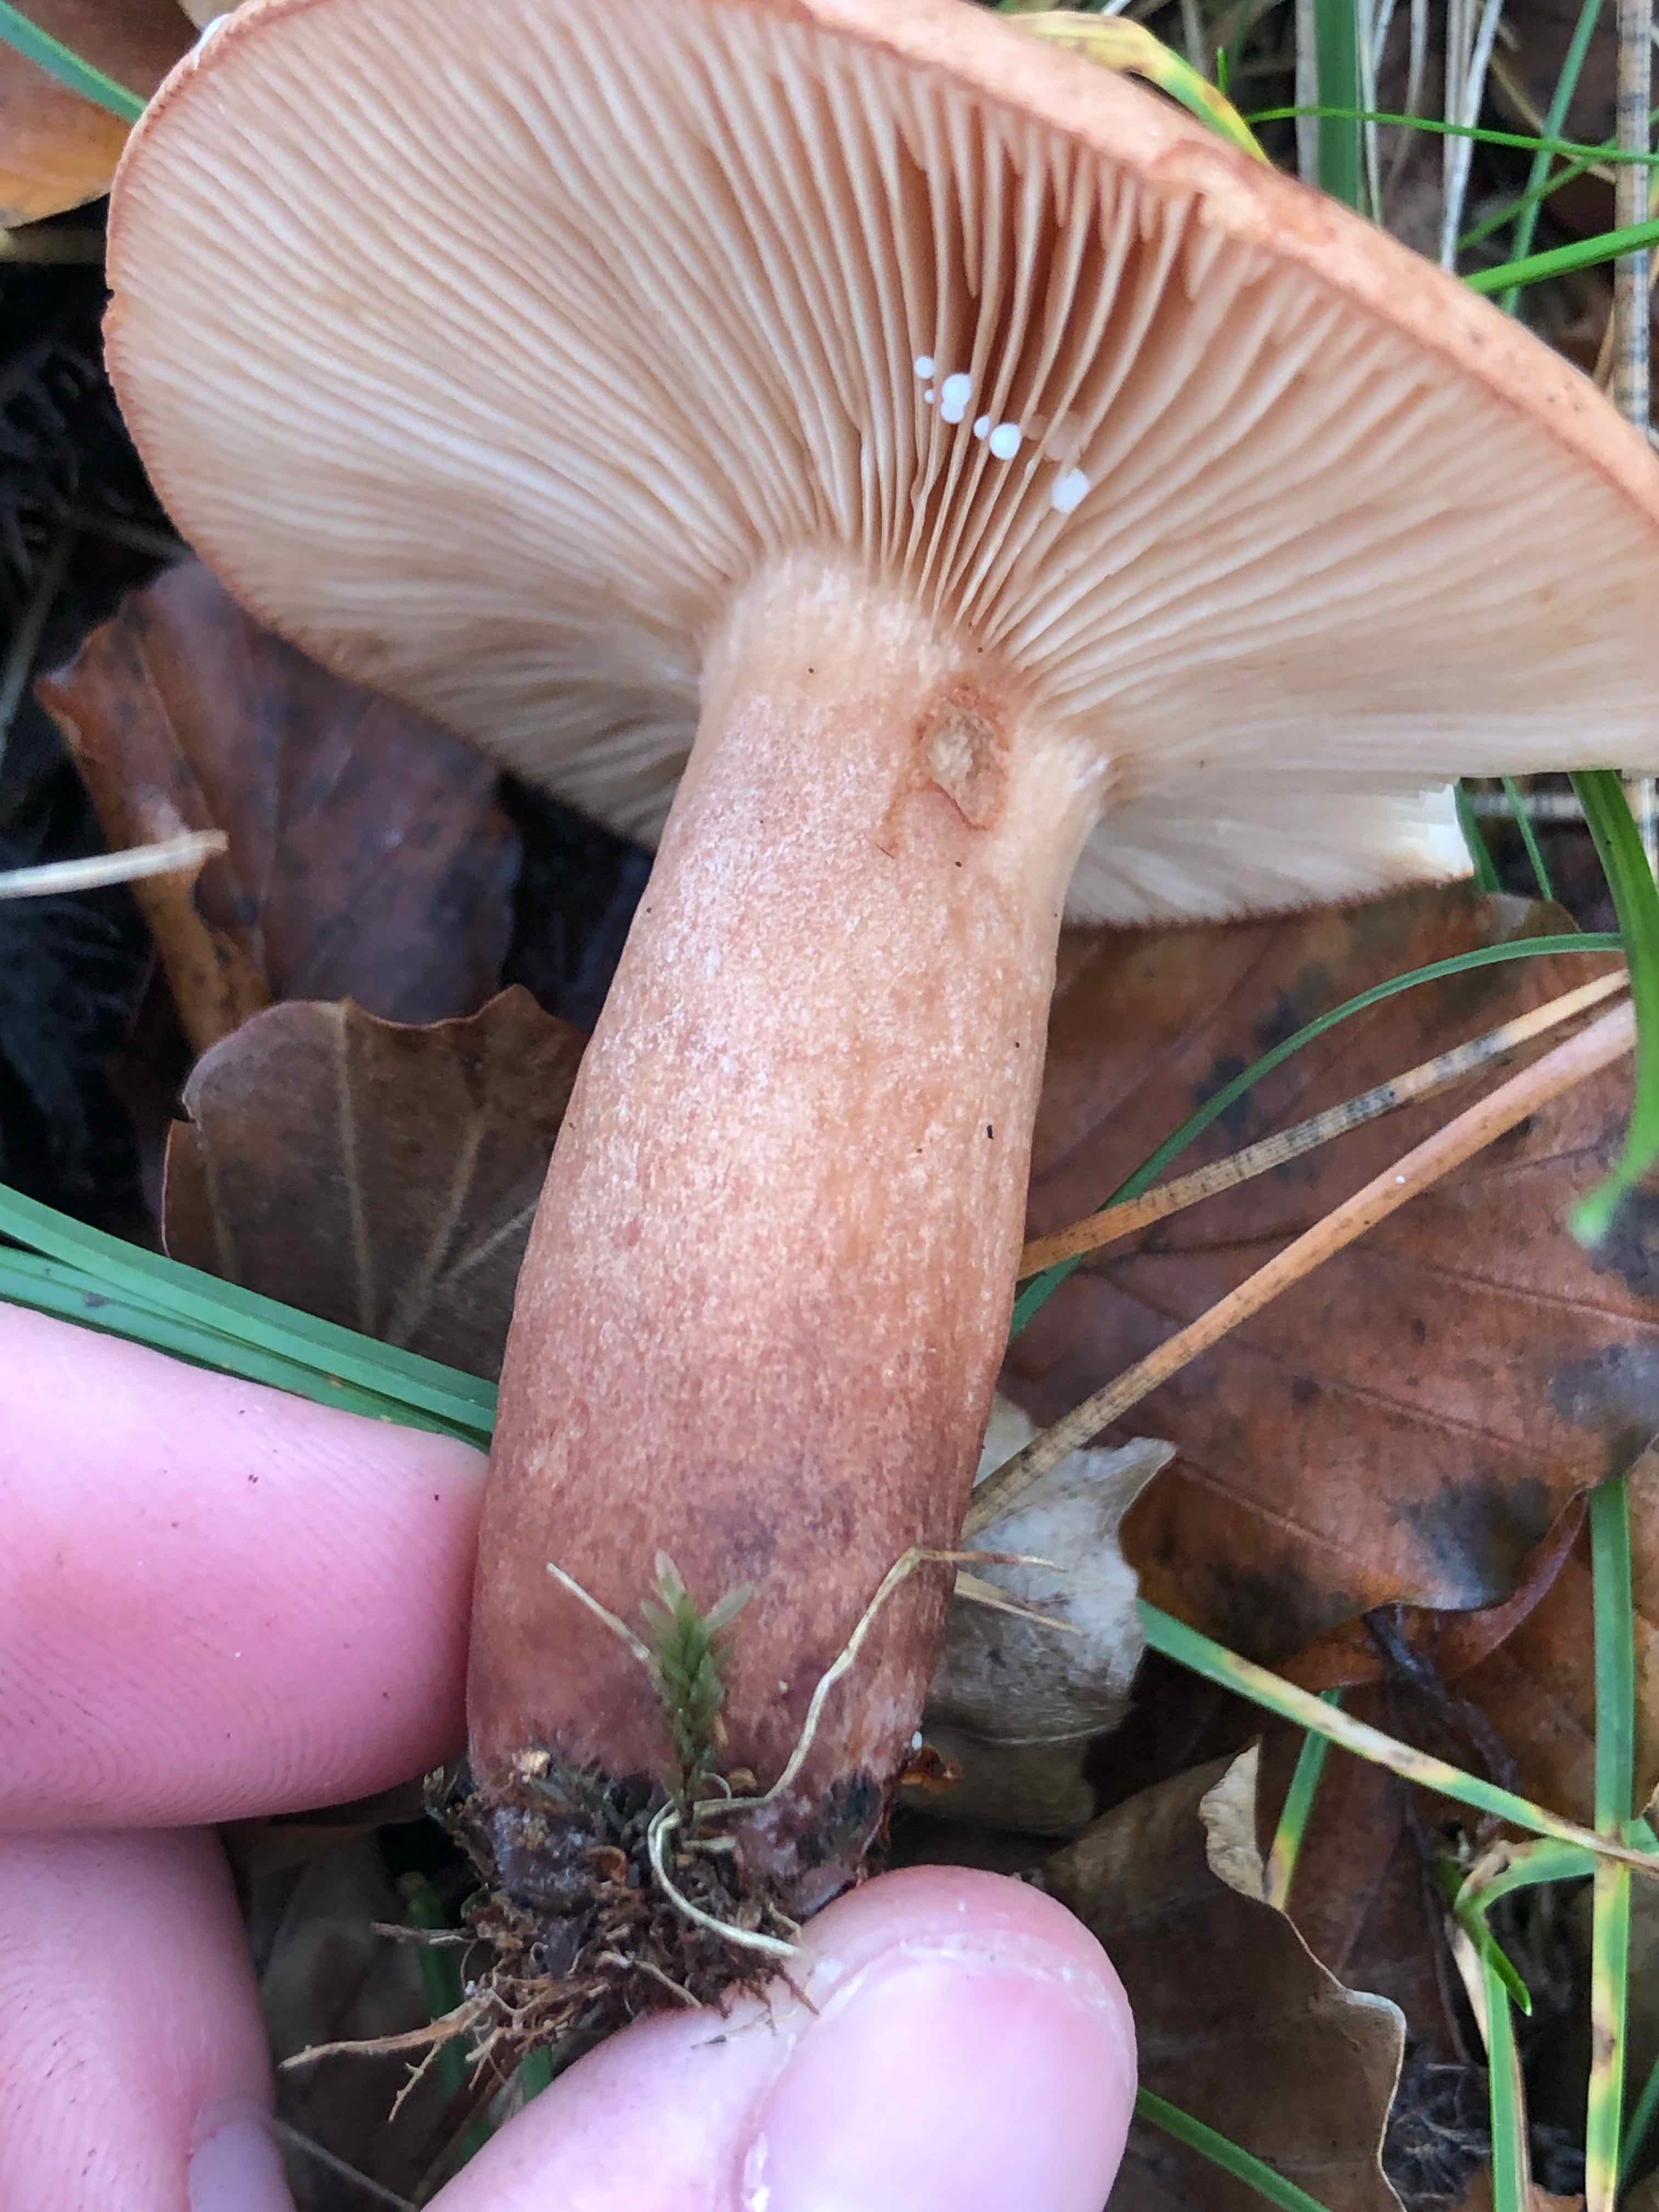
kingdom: Fungi
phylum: Basidiomycota
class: Agaricomycetes
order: Russulales
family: Russulaceae
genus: Lactarius
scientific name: Lactarius quietus
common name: ege-mælkehat
